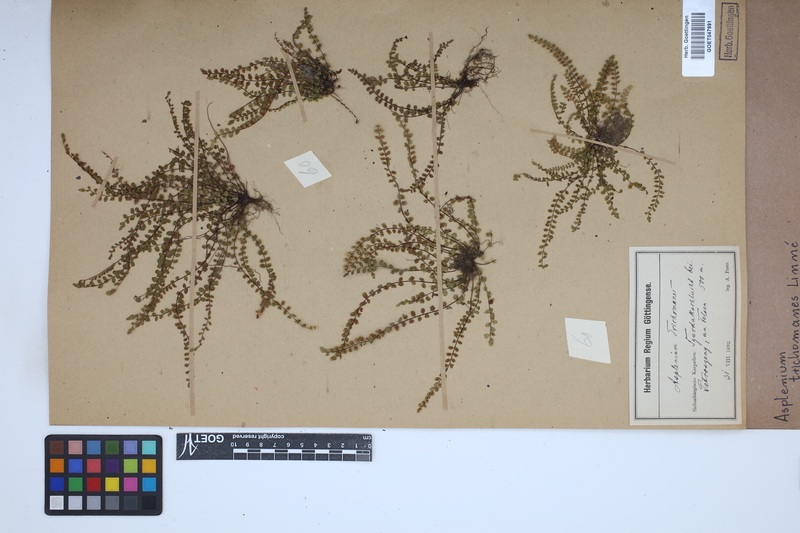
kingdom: Plantae
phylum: Tracheophyta
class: Polypodiopsida
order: Polypodiales
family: Aspleniaceae
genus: Asplenium
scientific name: Asplenium trichomanes
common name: Maidenhair spleenwort
